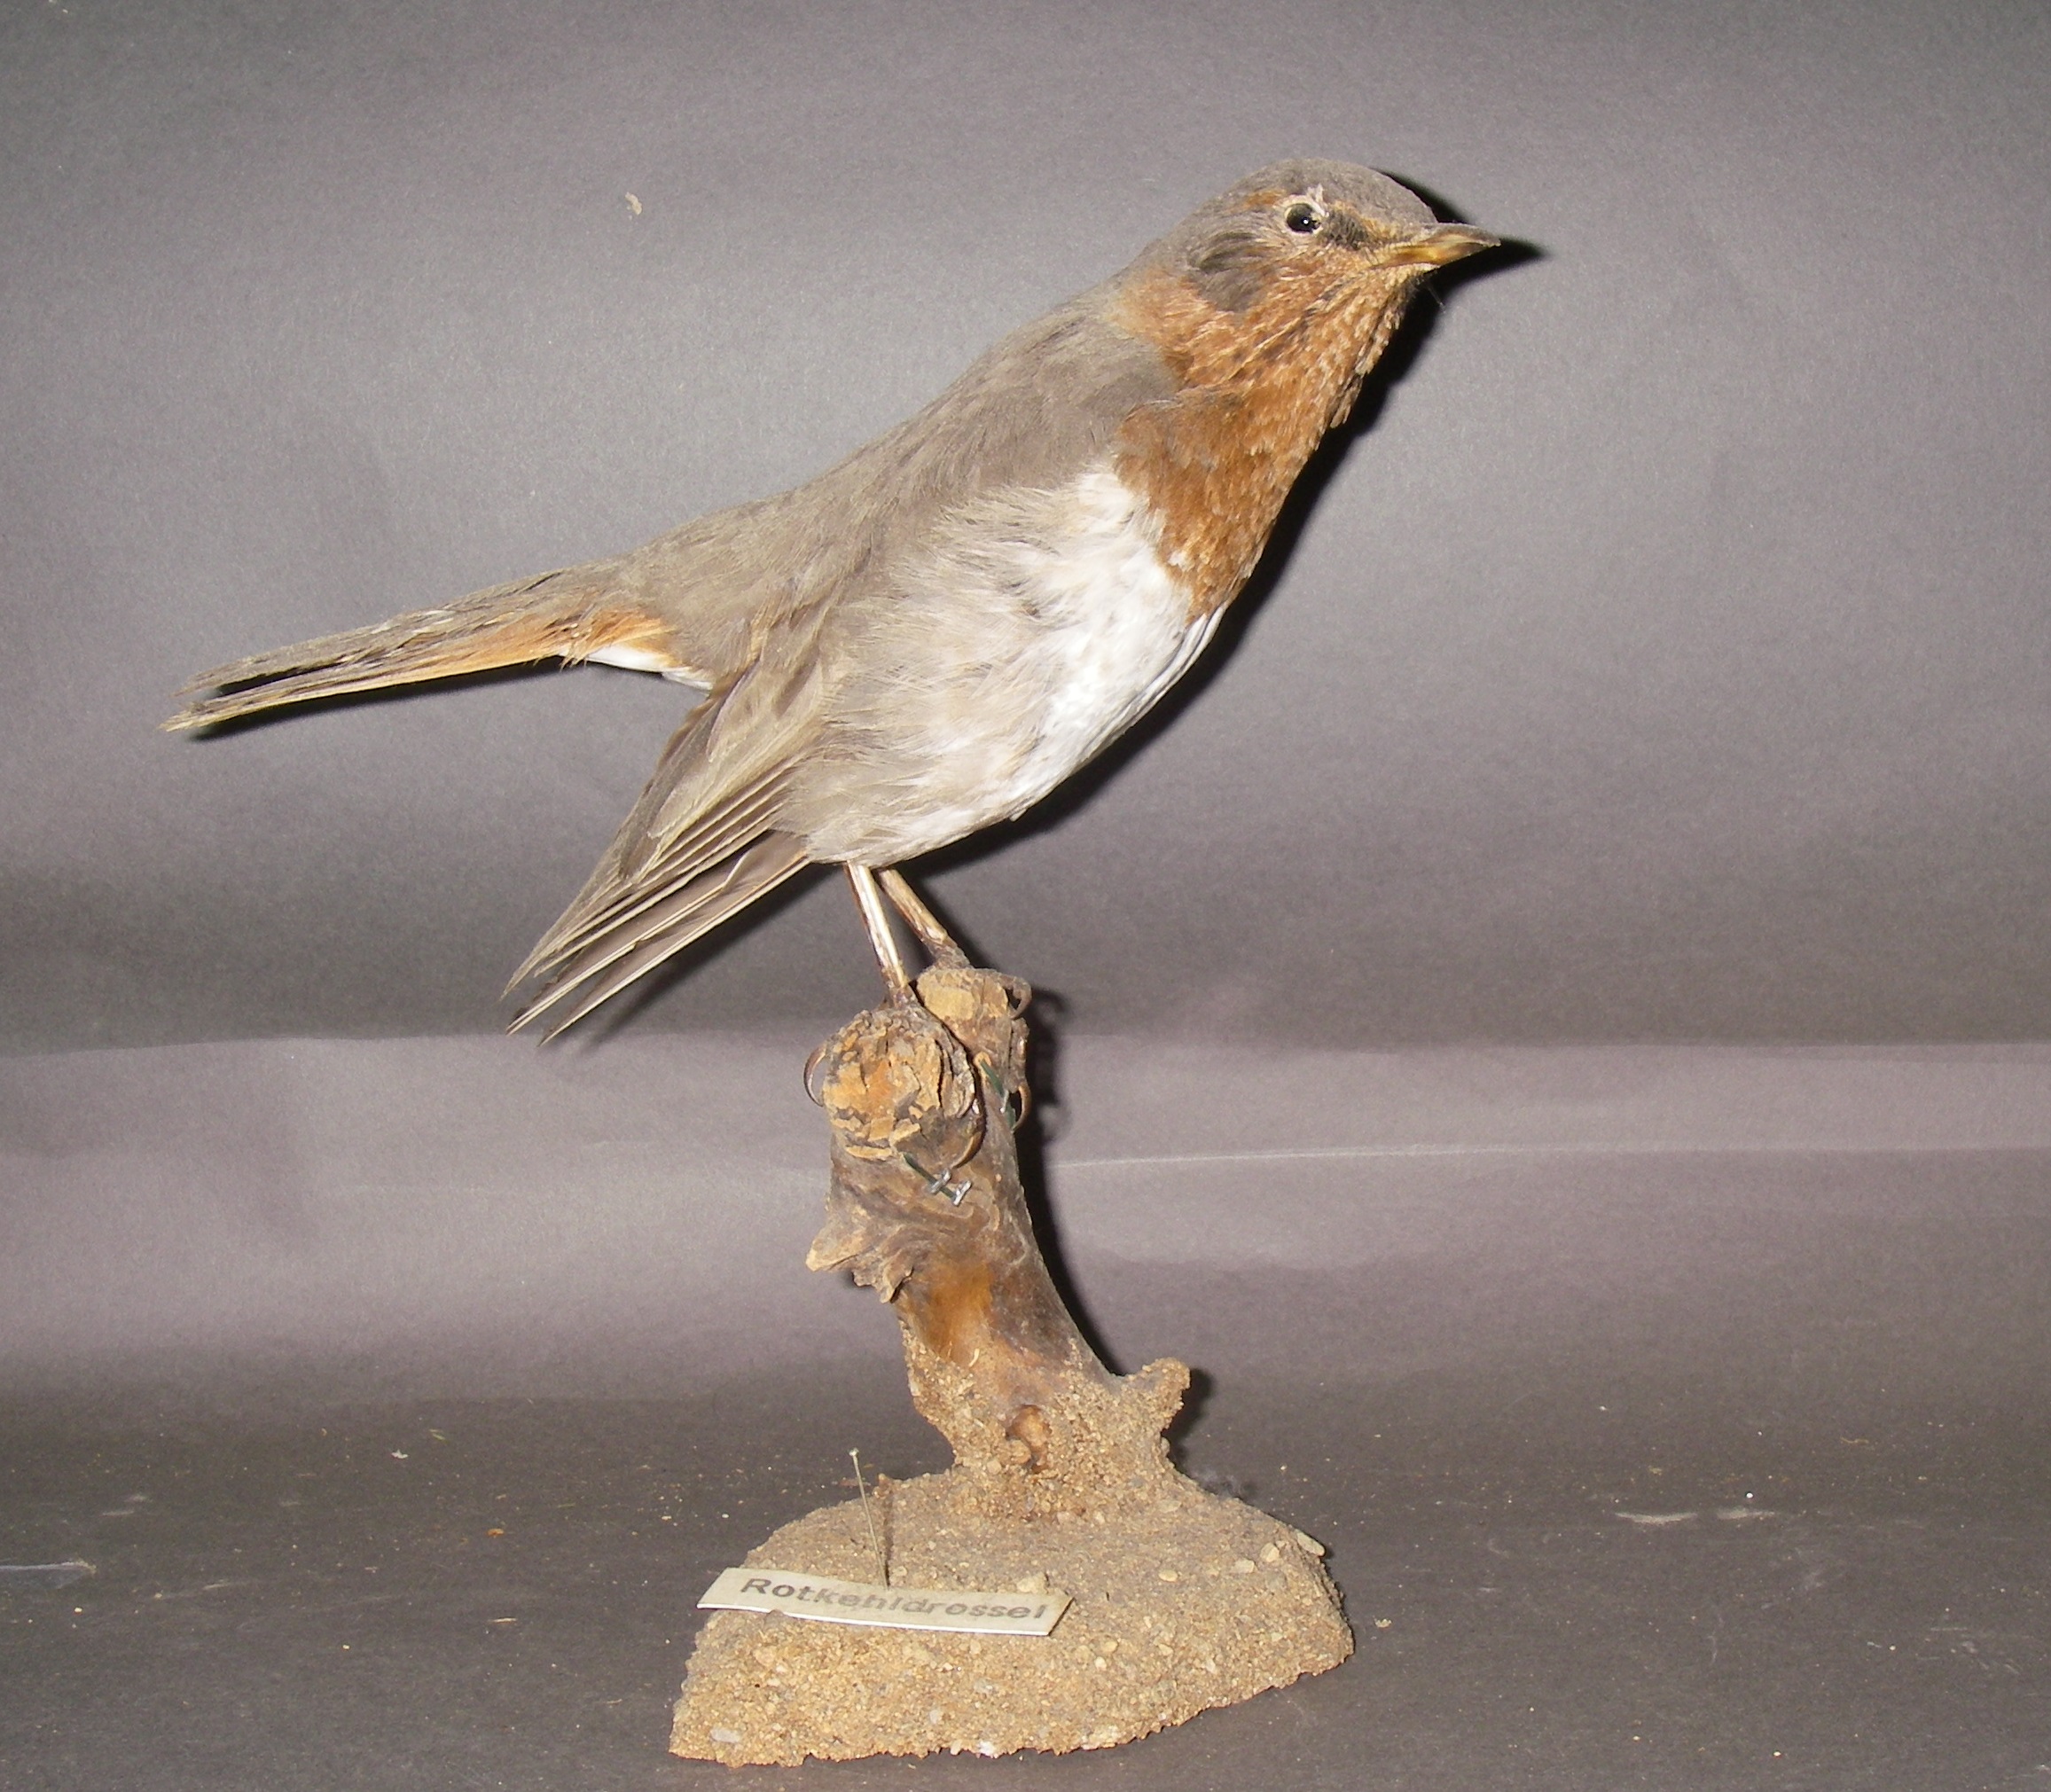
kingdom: Animalia
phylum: Chordata
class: Aves
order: Passeriformes
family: Turdidae
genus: Turdus
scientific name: Turdus ruficollis
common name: Red-throated thrush
